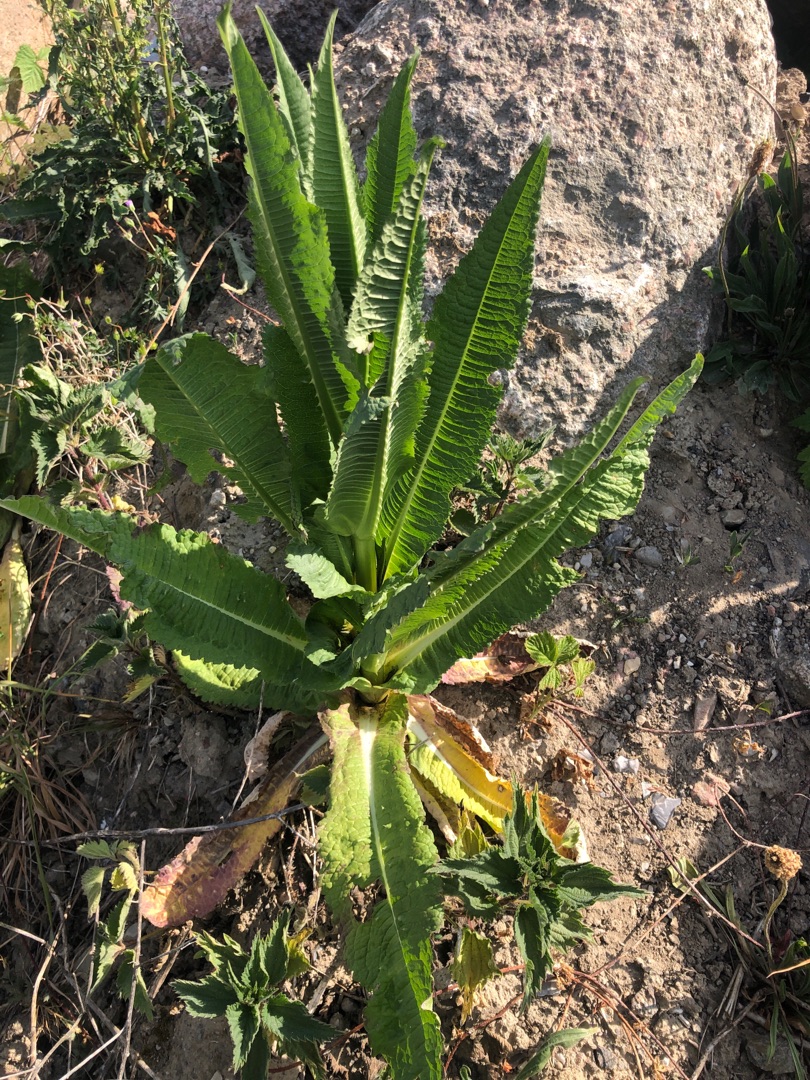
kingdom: Plantae
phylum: Tracheophyta
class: Magnoliopsida
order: Dipsacales
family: Caprifoliaceae
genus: Dipsacus
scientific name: Dipsacus fullonum
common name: Gærde-kartebolle
